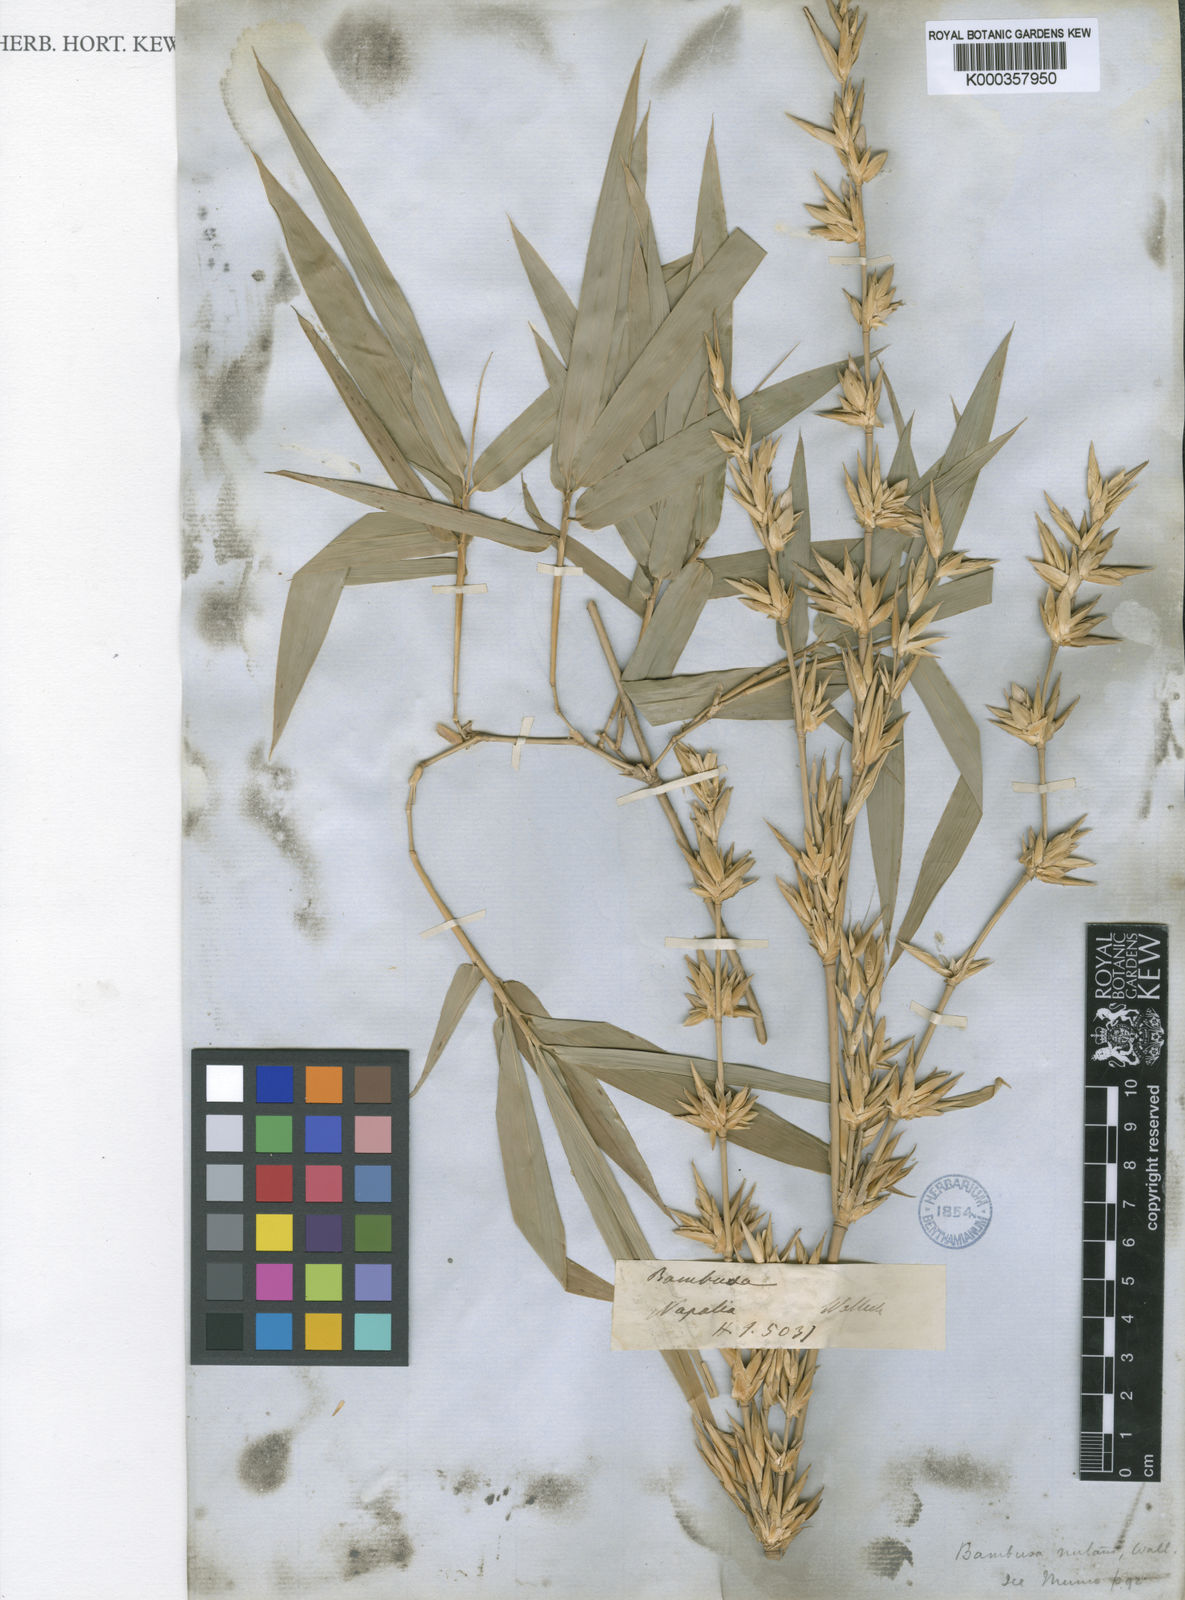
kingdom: Plantae
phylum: Tracheophyta
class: Liliopsida
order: Poales
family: Poaceae
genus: Bambusa
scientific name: Bambusa nutans
